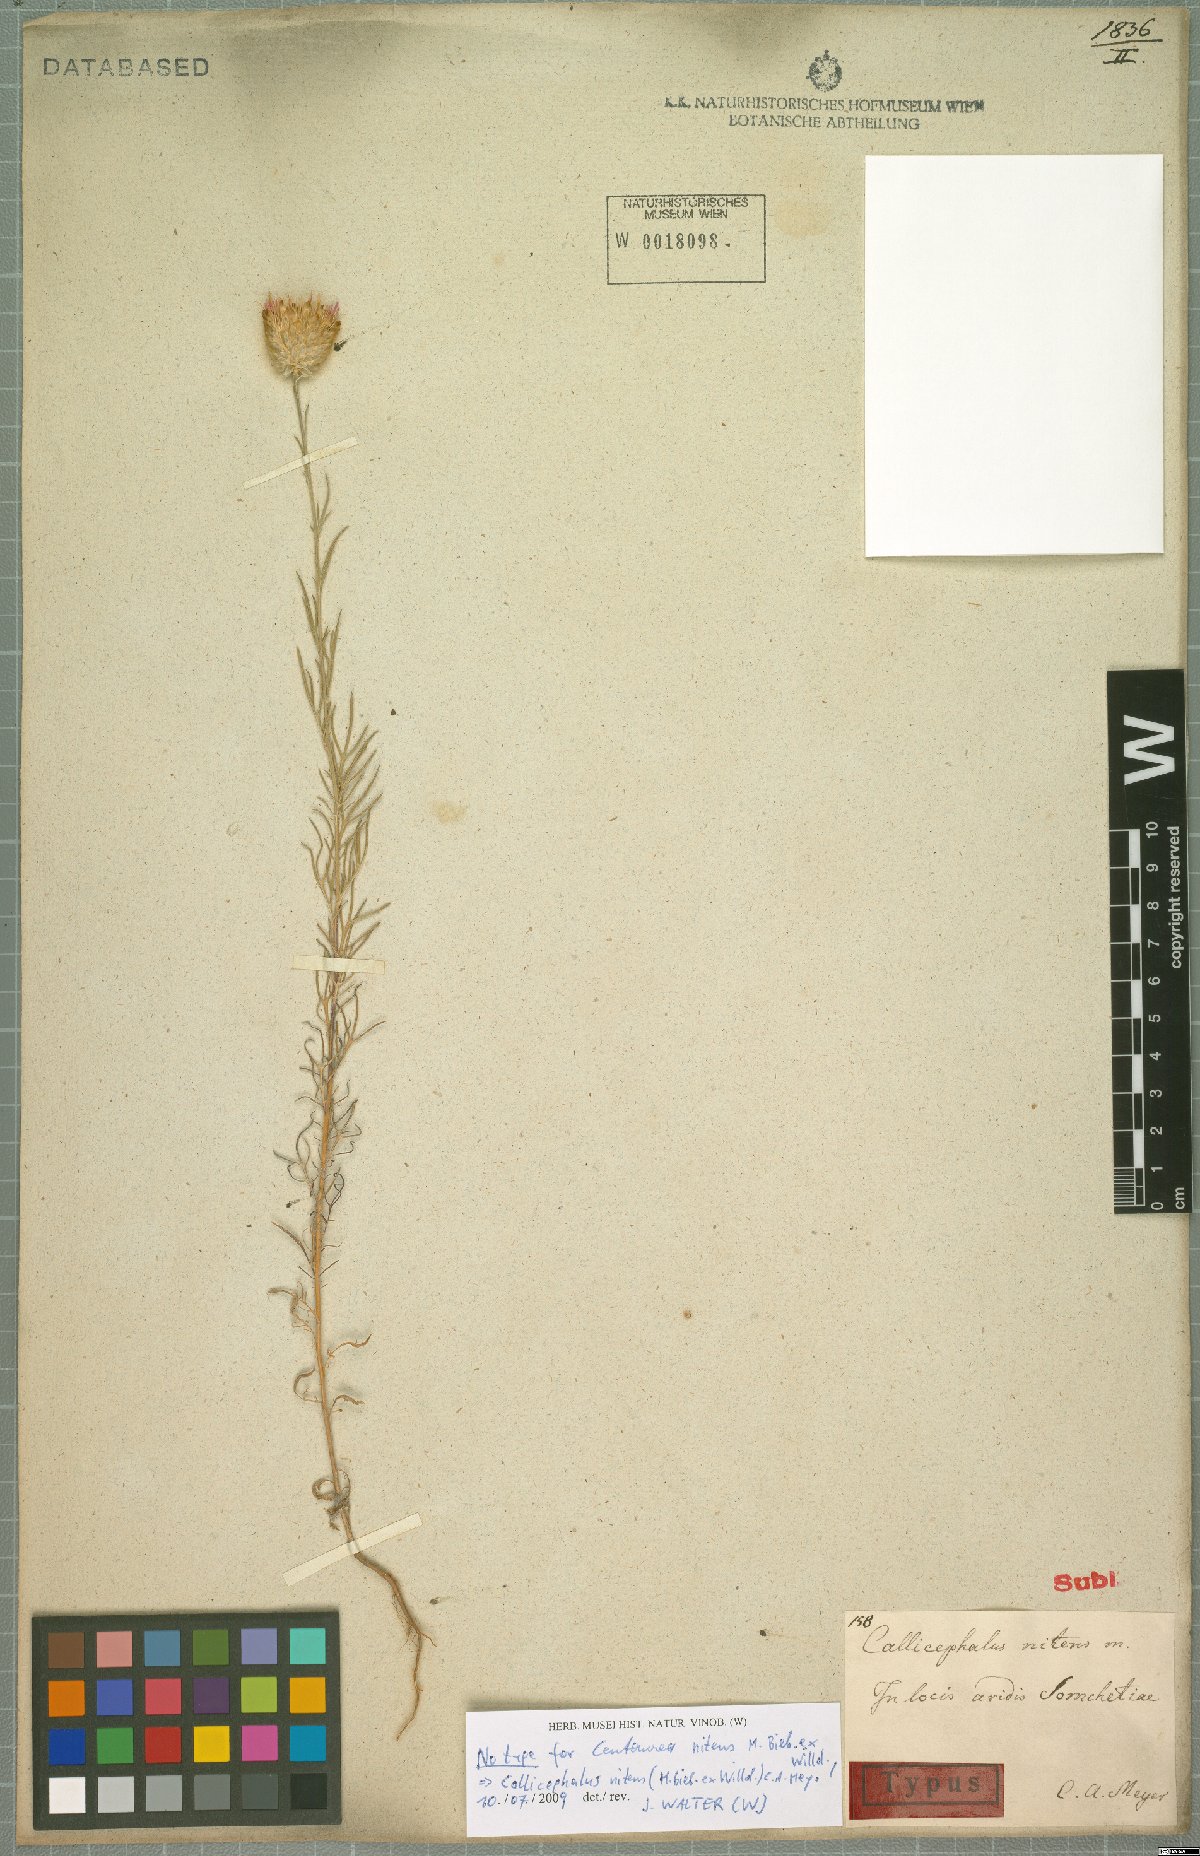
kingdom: Plantae
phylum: Tracheophyta
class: Magnoliopsida
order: Asterales
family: Asteraceae
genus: Callicephalus
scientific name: Callicephalus nitens
